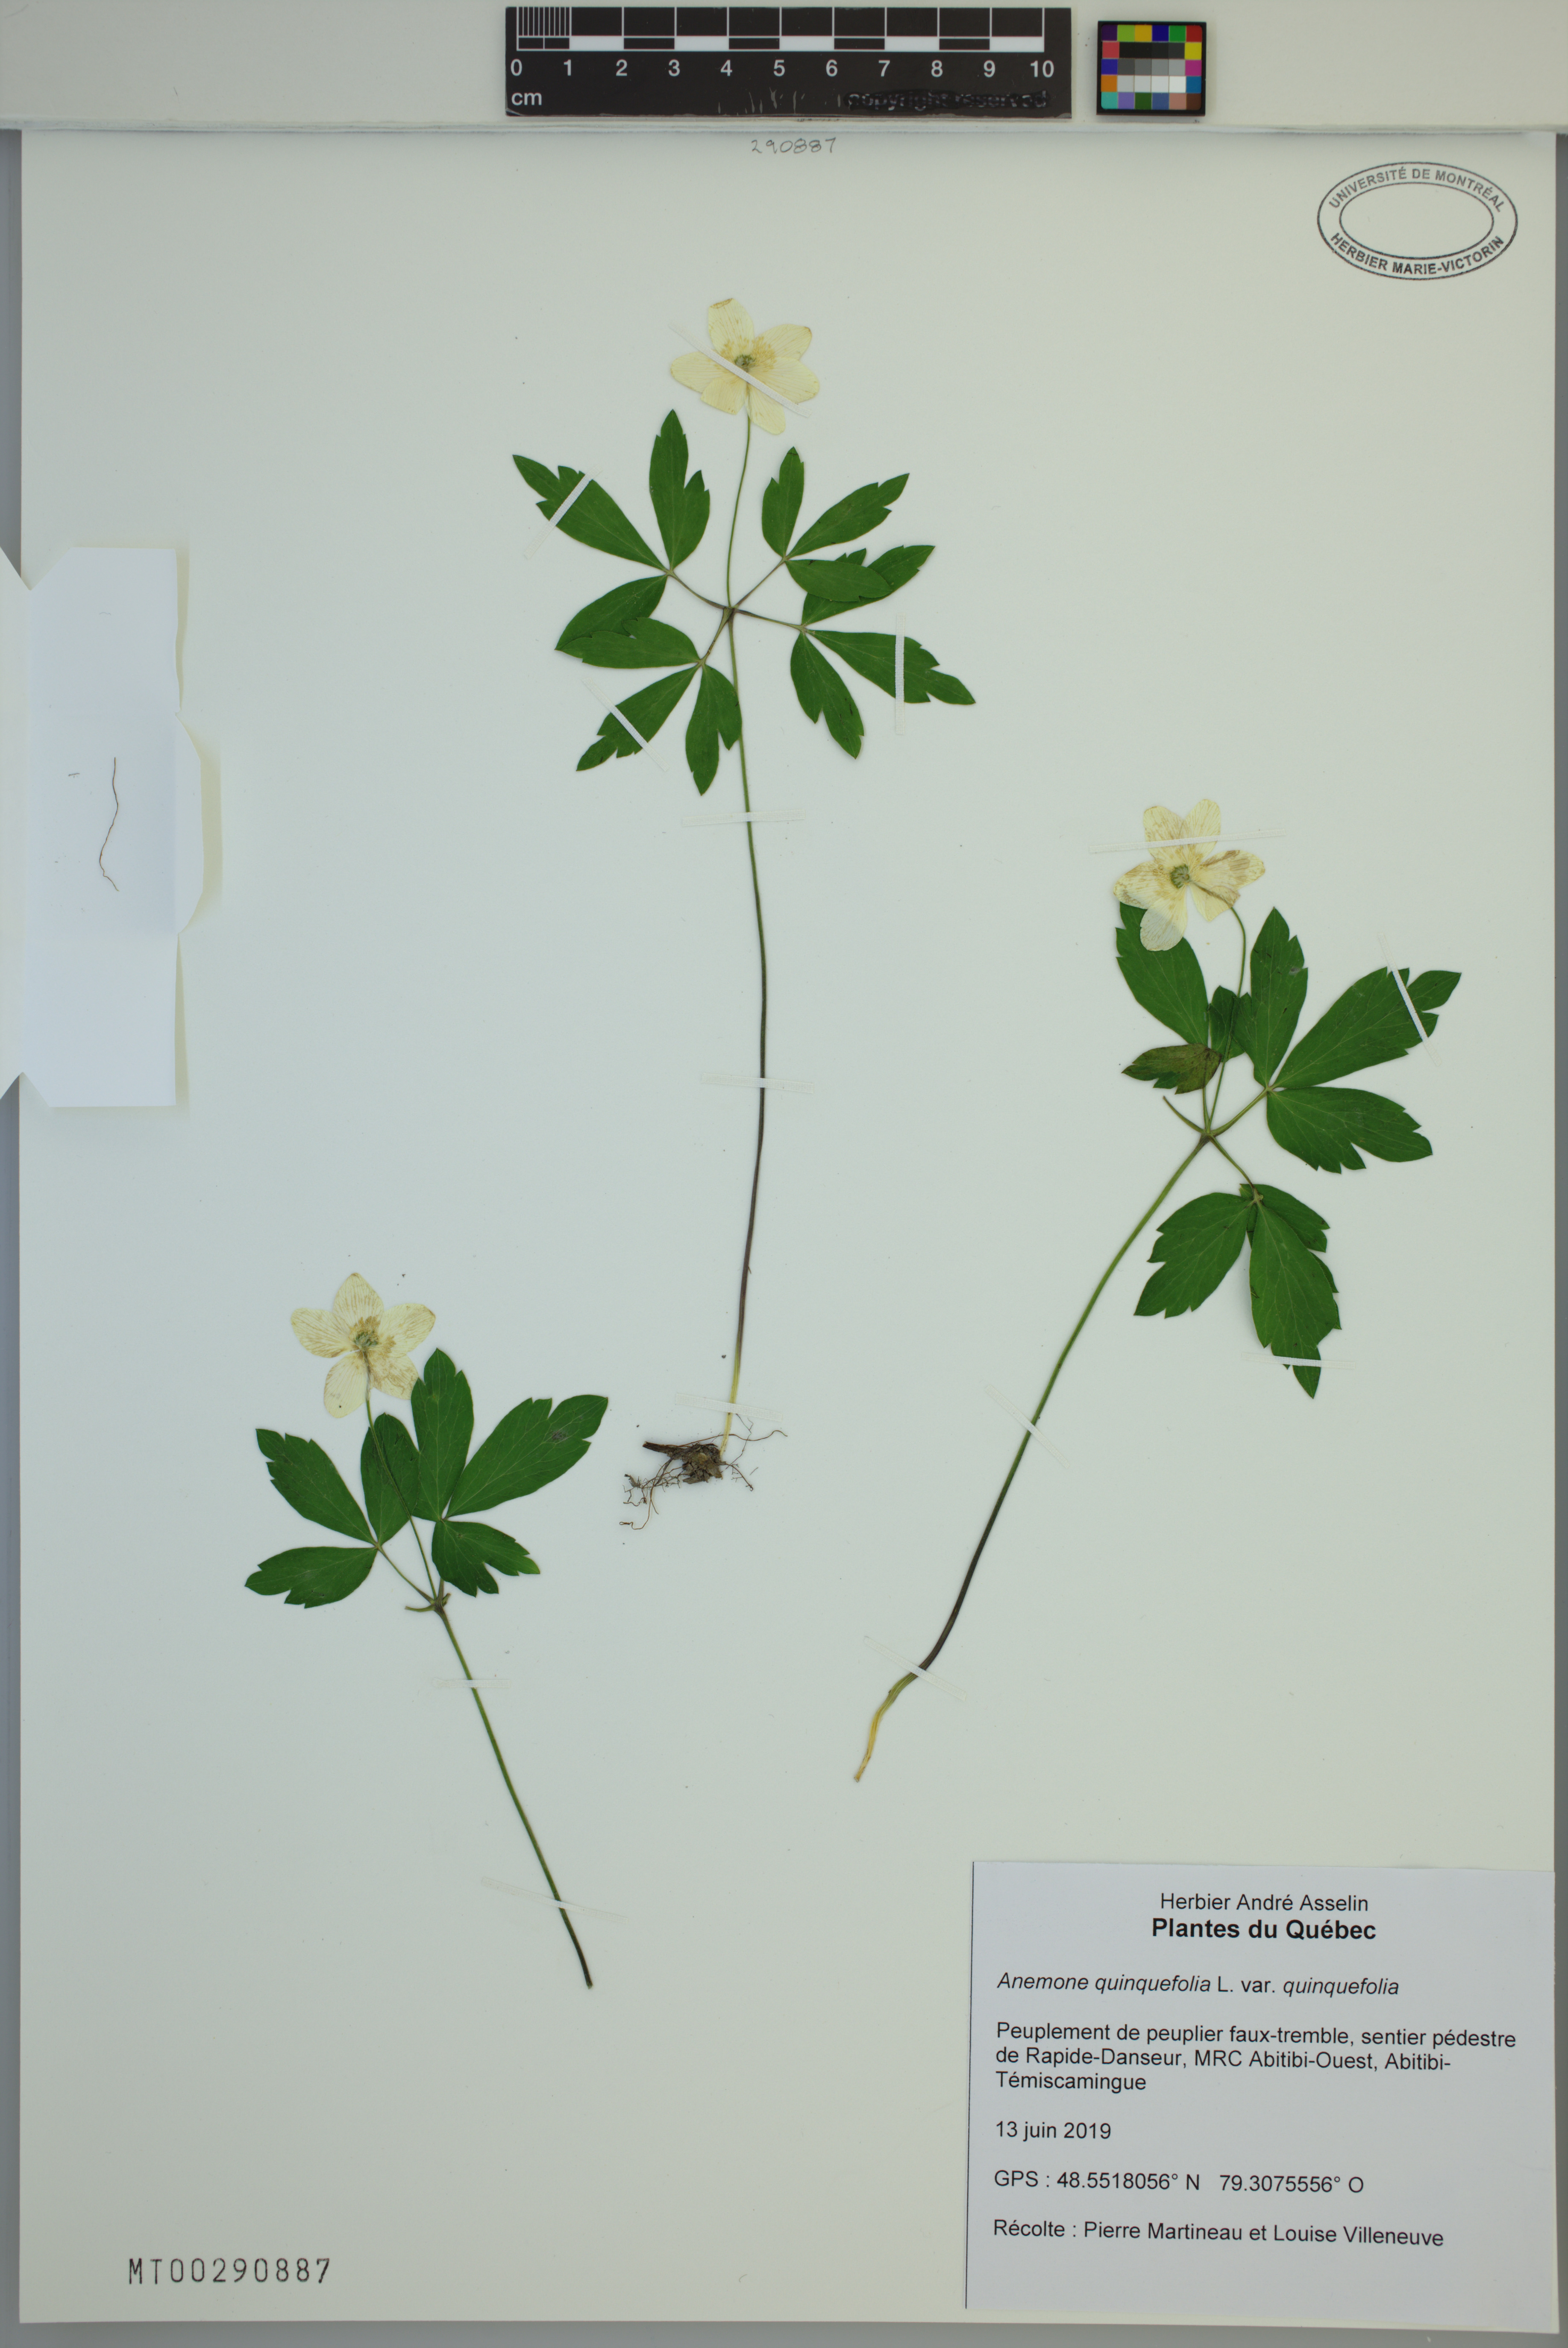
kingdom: Plantae
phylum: Tracheophyta
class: Magnoliopsida
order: Ranunculales
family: Ranunculaceae
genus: Anemone
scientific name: Anemone quinquefolia
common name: Wood anemone
